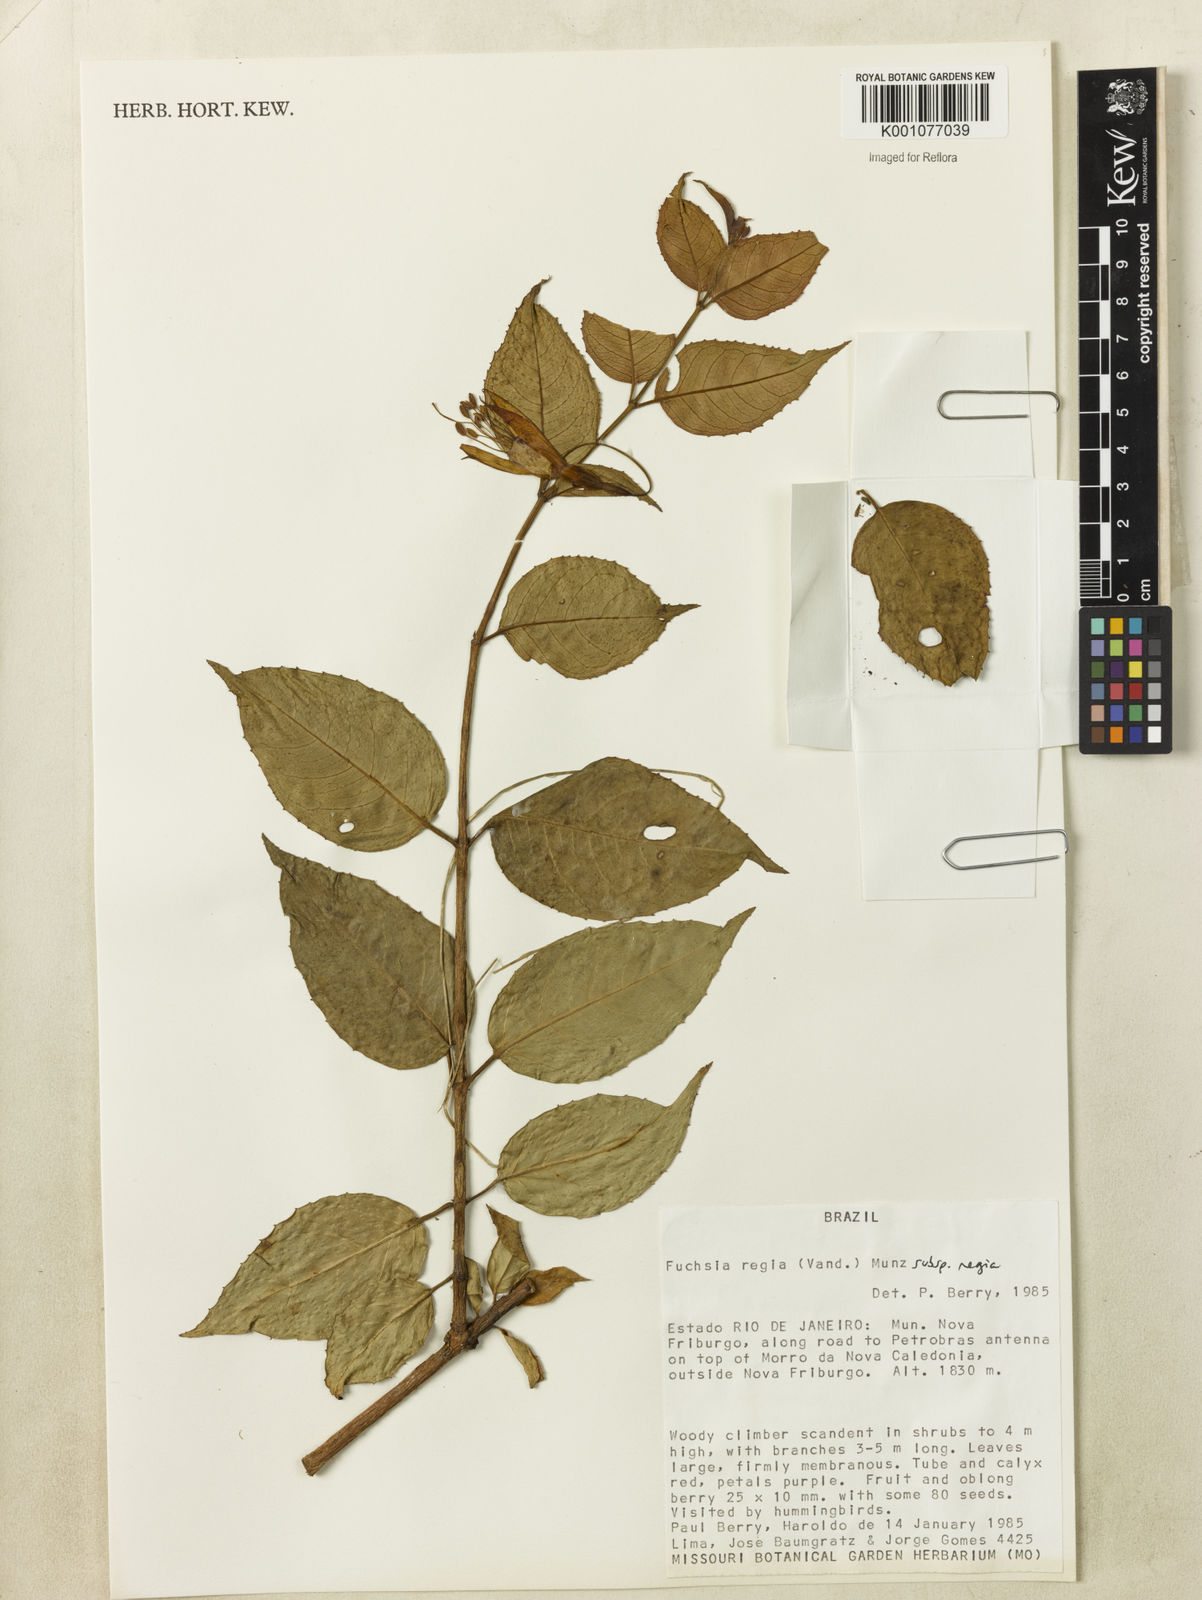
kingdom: Plantae
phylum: Tracheophyta
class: Magnoliopsida
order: Myrtales
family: Onagraceae
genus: Fuchsia
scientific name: Fuchsia regia
